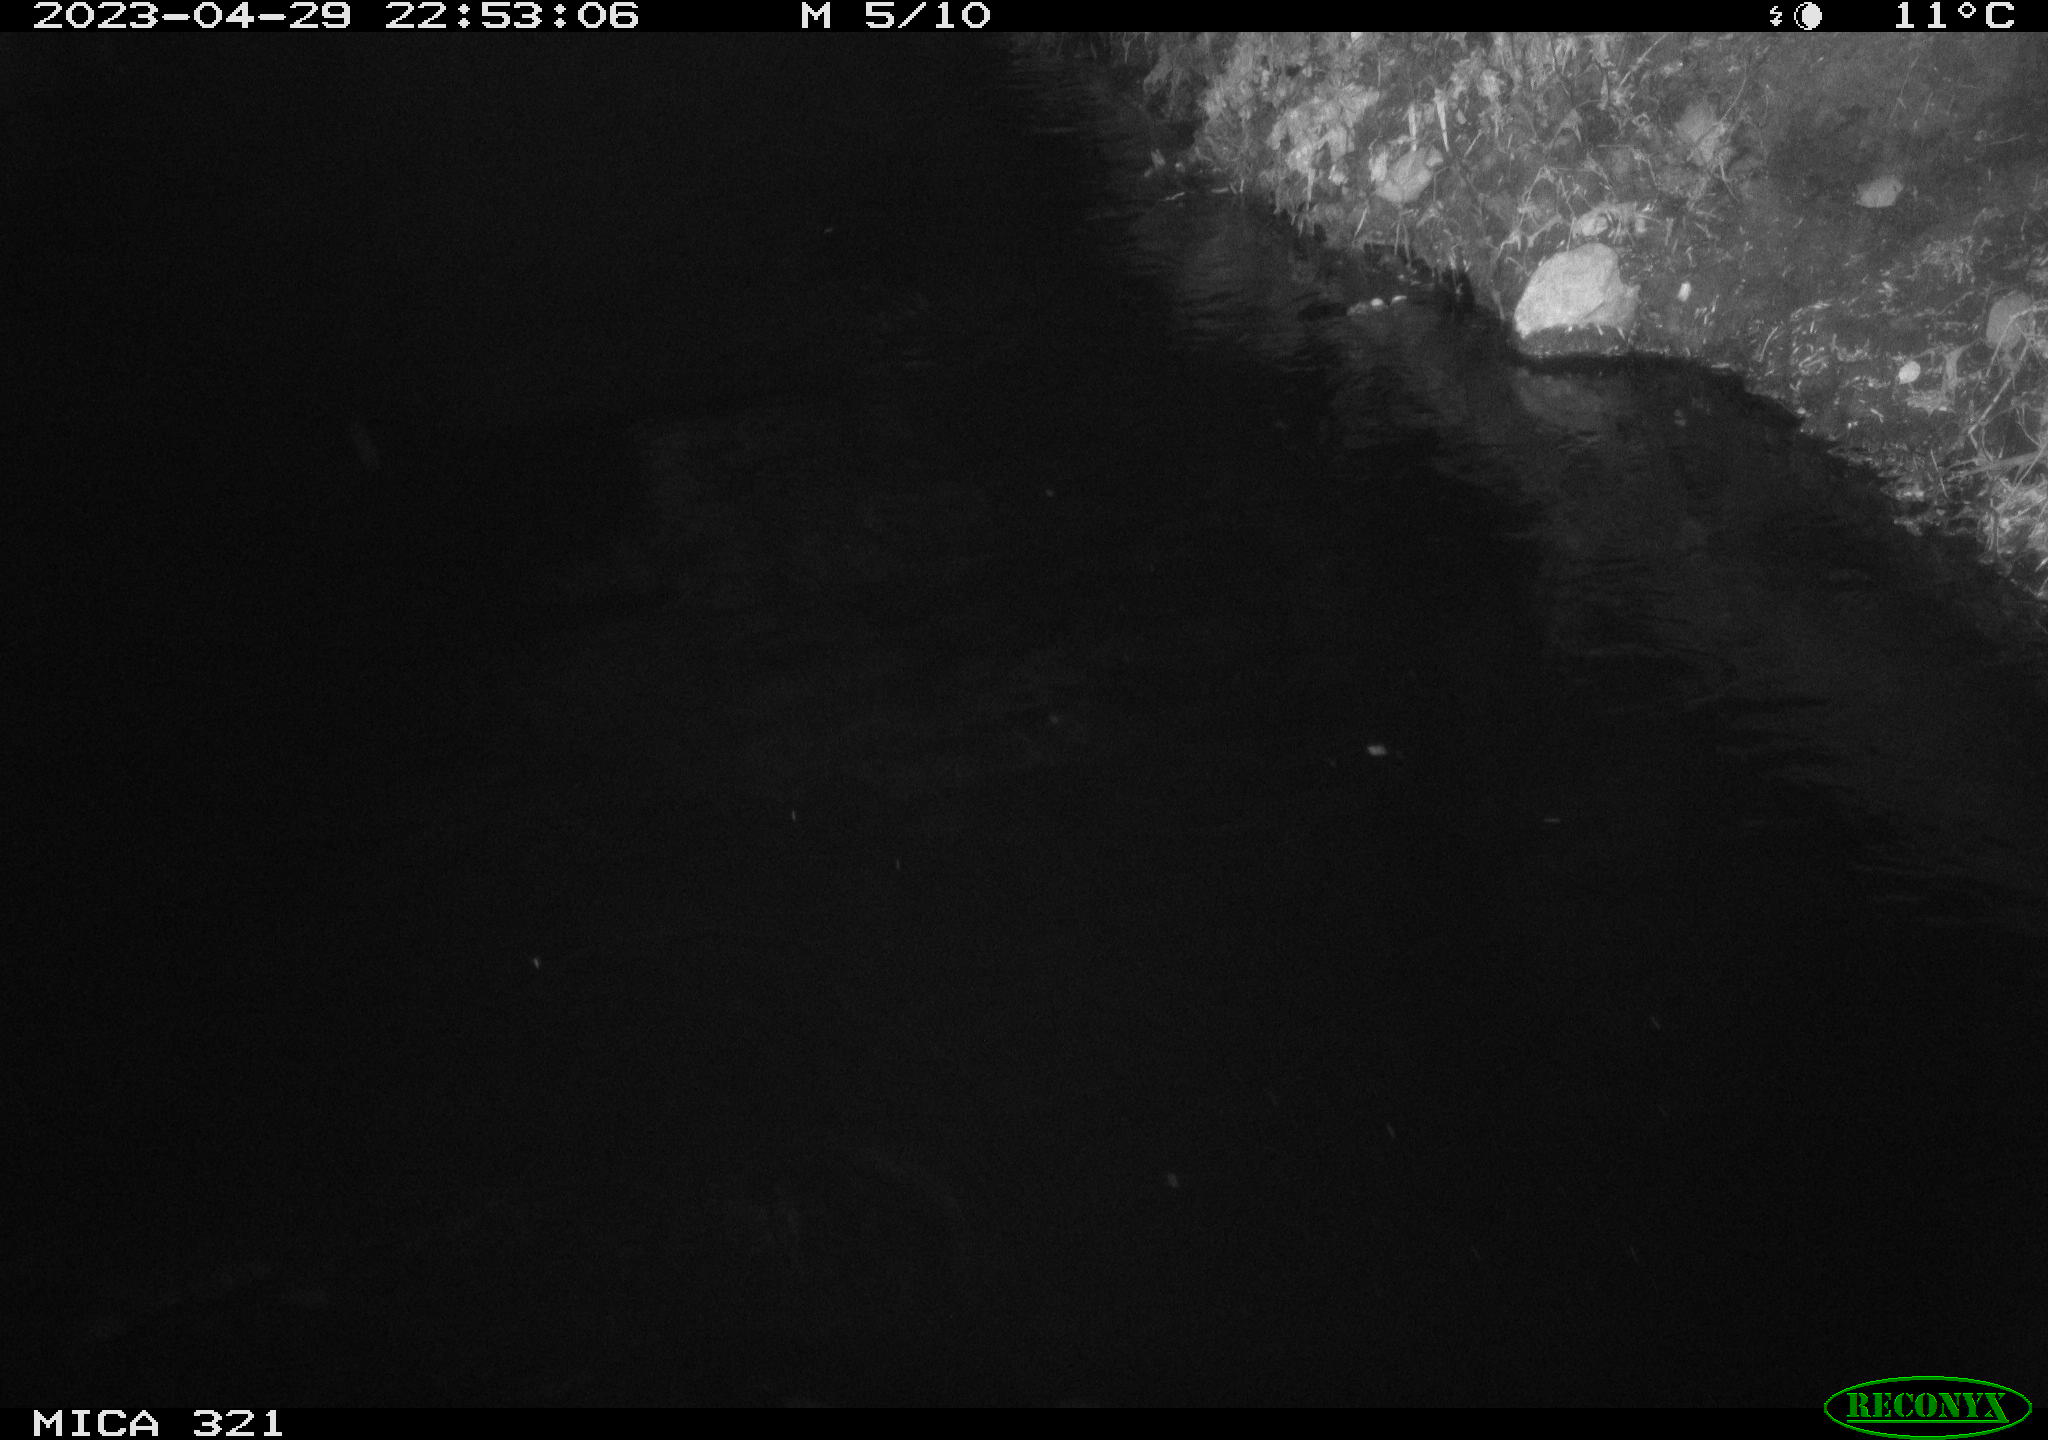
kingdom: Animalia
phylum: Chordata
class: Aves
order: Anseriformes
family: Anatidae
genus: Anas
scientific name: Anas
